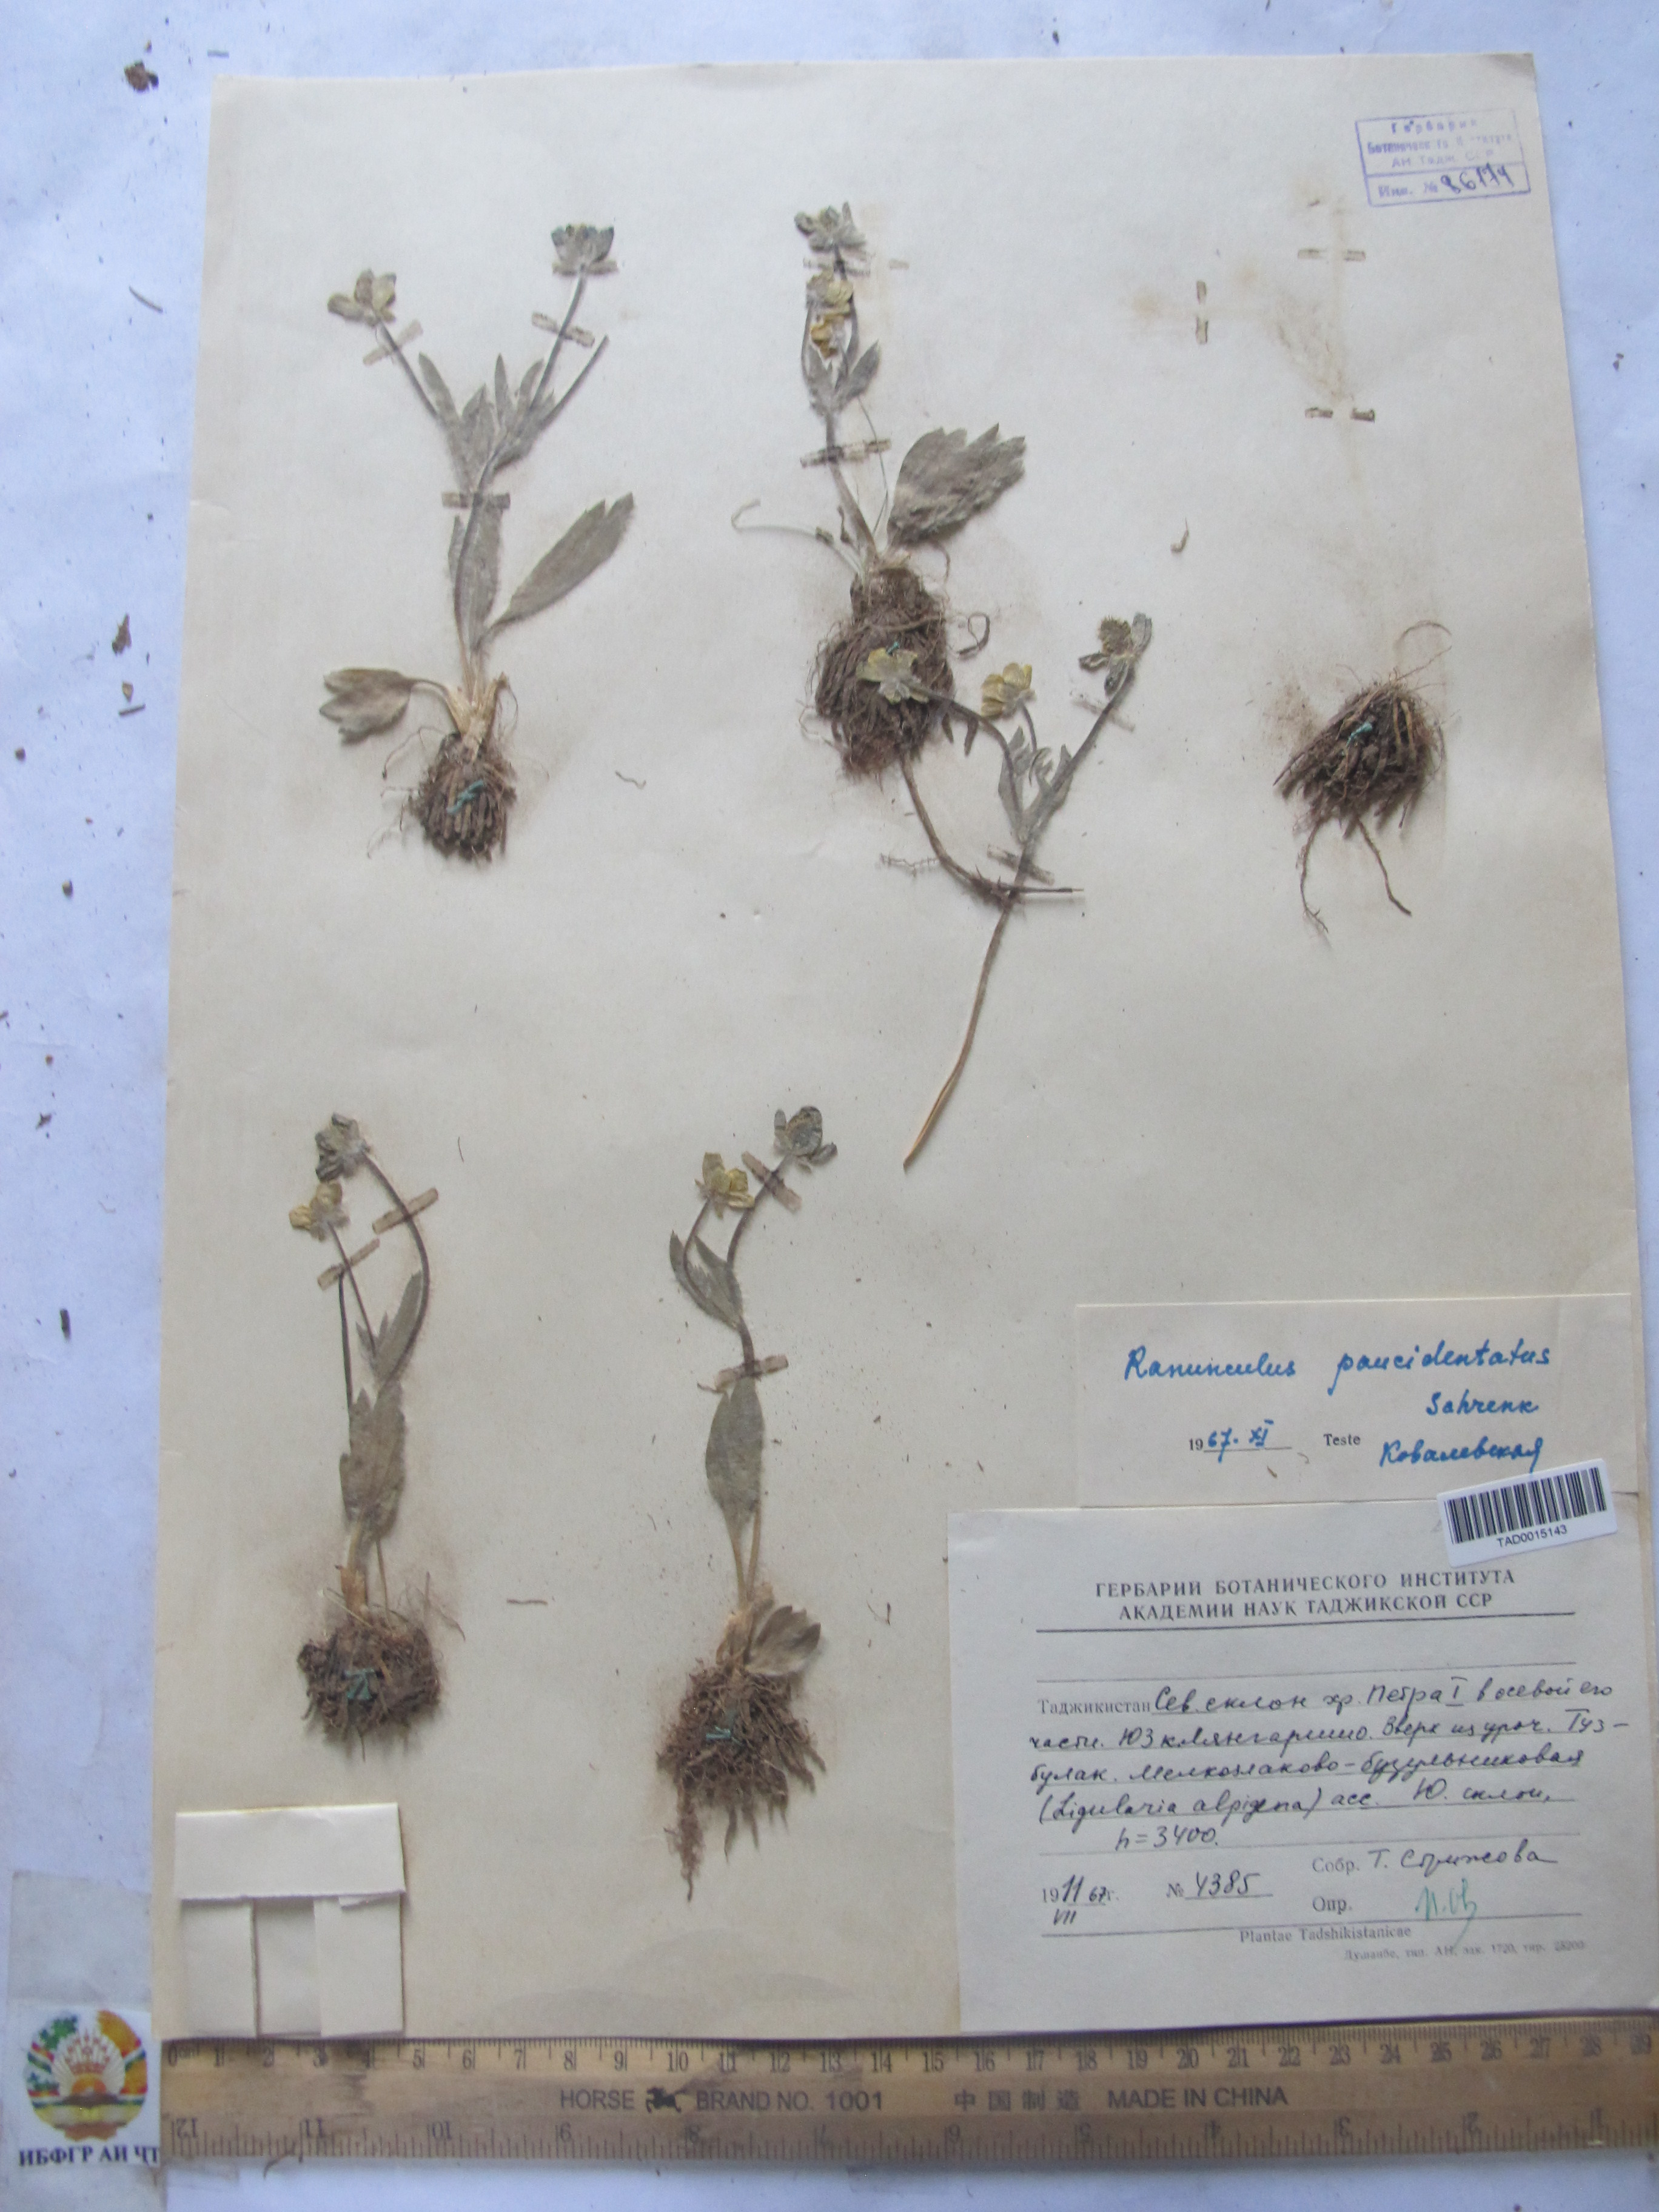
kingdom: Plantae
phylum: Tracheophyta
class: Magnoliopsida
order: Ranunculales
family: Ranunculaceae
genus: Ranunculus
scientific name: Ranunculus paucidentatus
